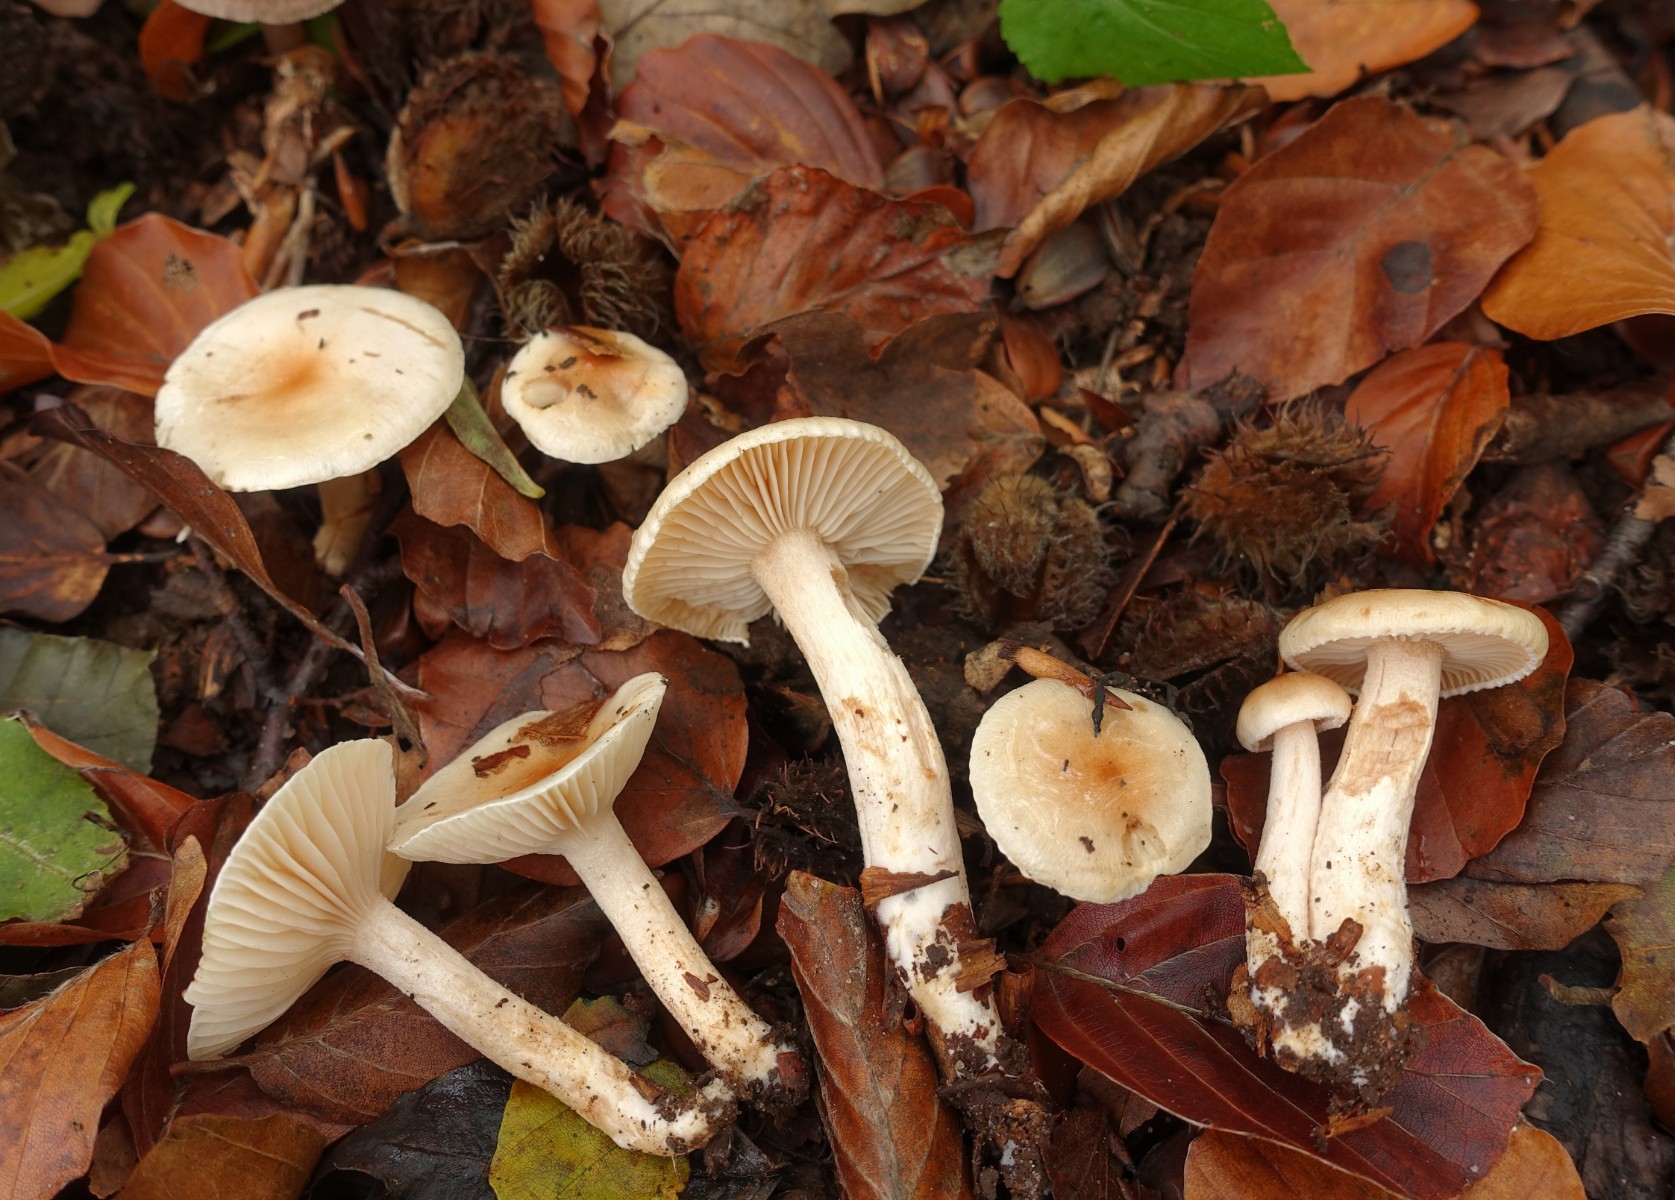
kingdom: Fungi
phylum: Basidiomycota
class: Agaricomycetes
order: Agaricales
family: Hygrophoraceae
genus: Hygrophorus
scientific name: Hygrophorus unicolor
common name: orangeøjet sneglehat
